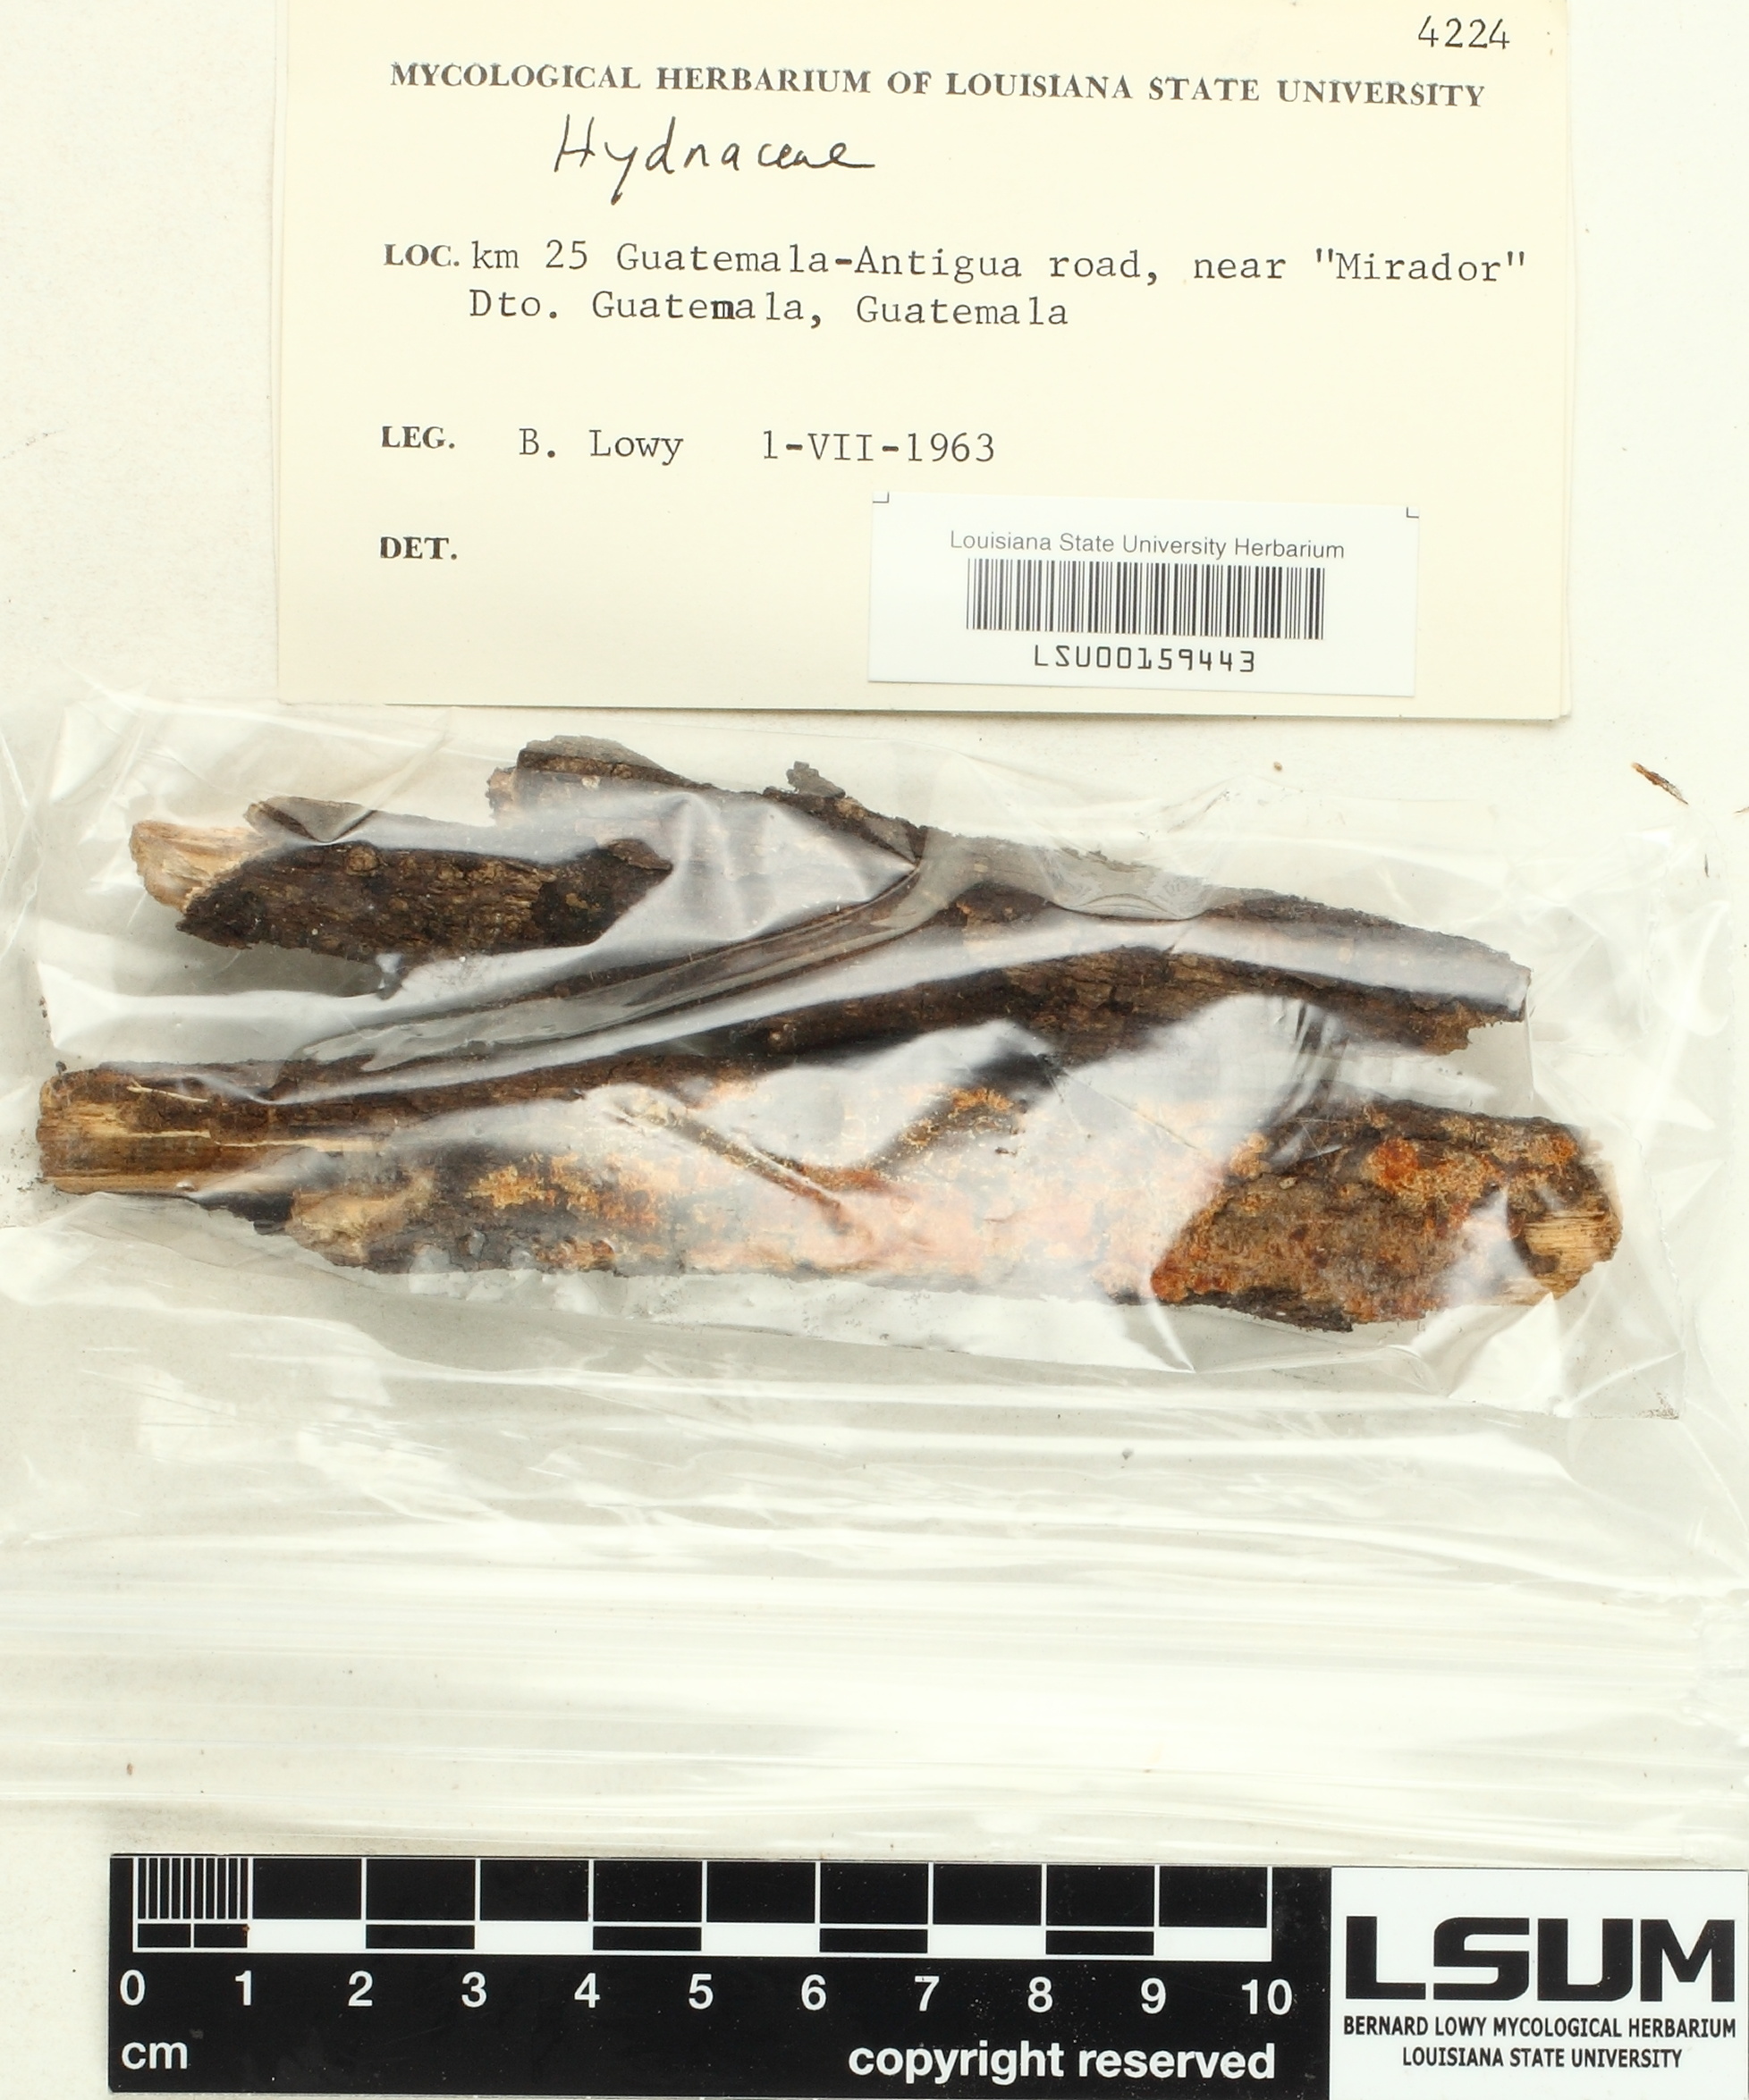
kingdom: Fungi
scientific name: Fungi
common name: Fungi
